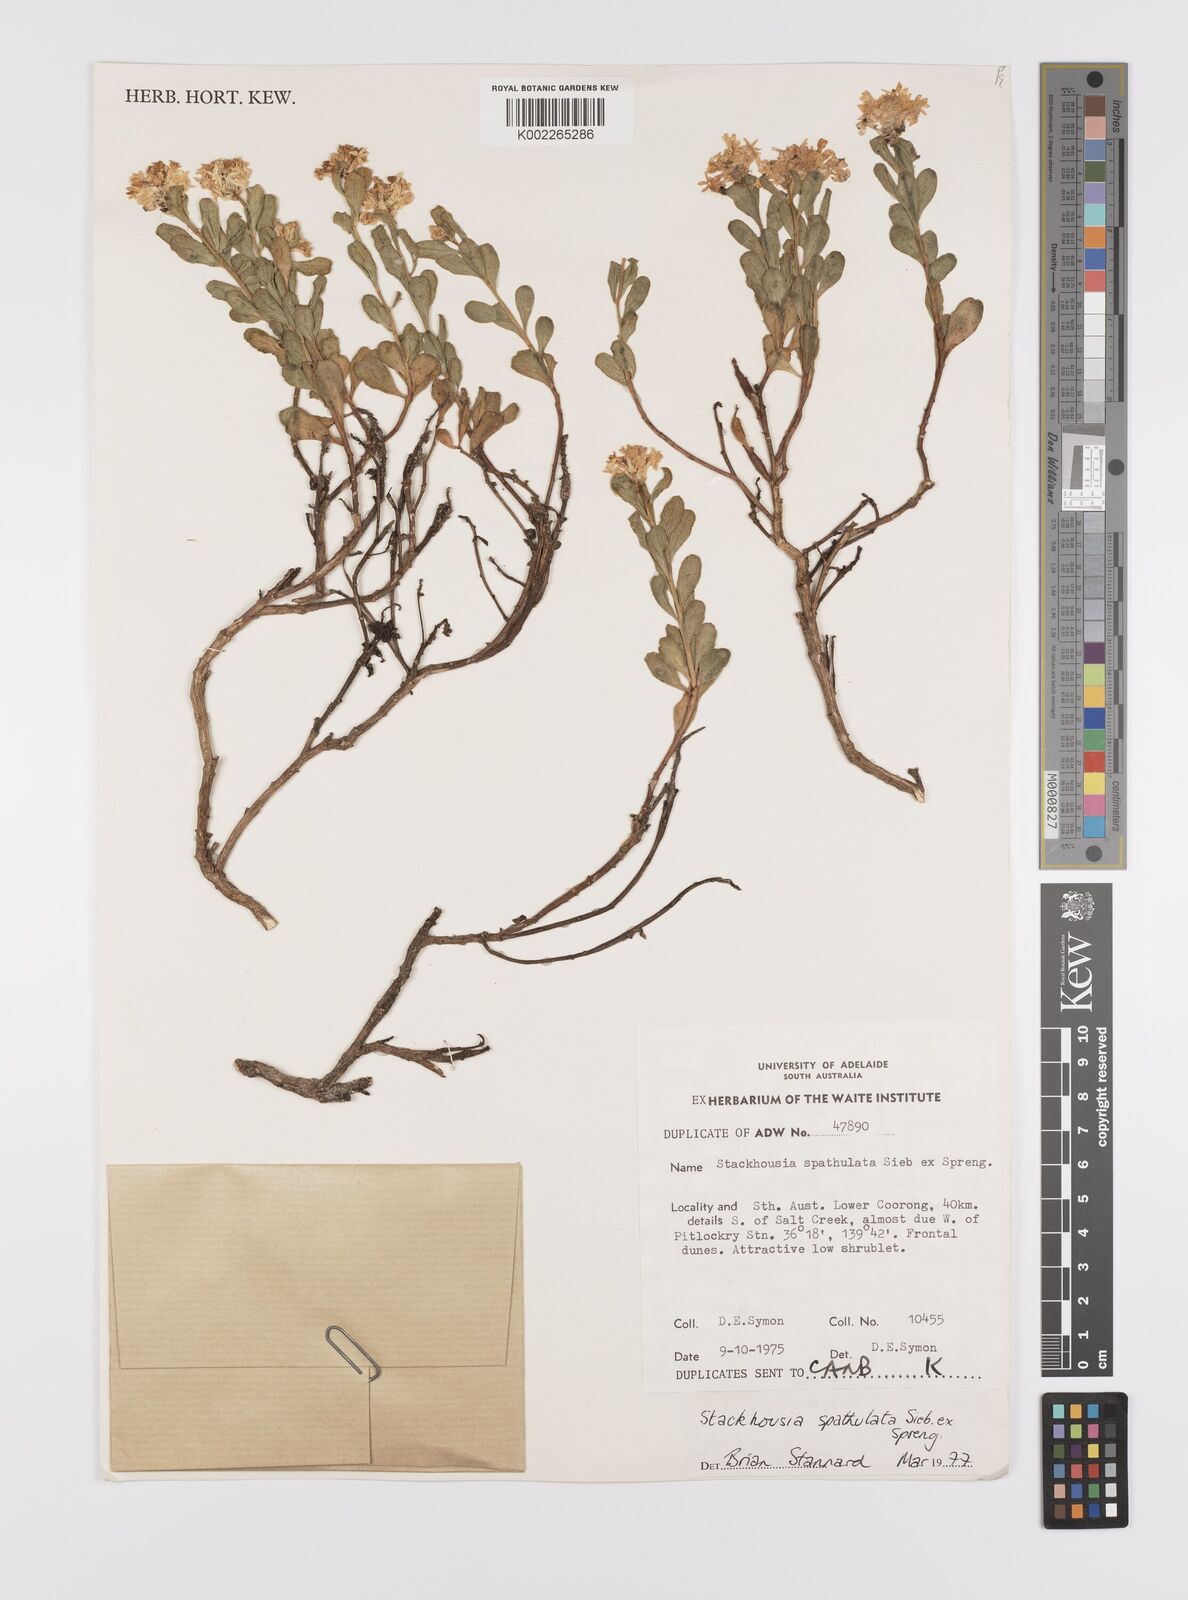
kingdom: Plantae
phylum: Tracheophyta
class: Magnoliopsida
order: Celastrales
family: Celastraceae
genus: Stackhousia
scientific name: Stackhousia spathulata
